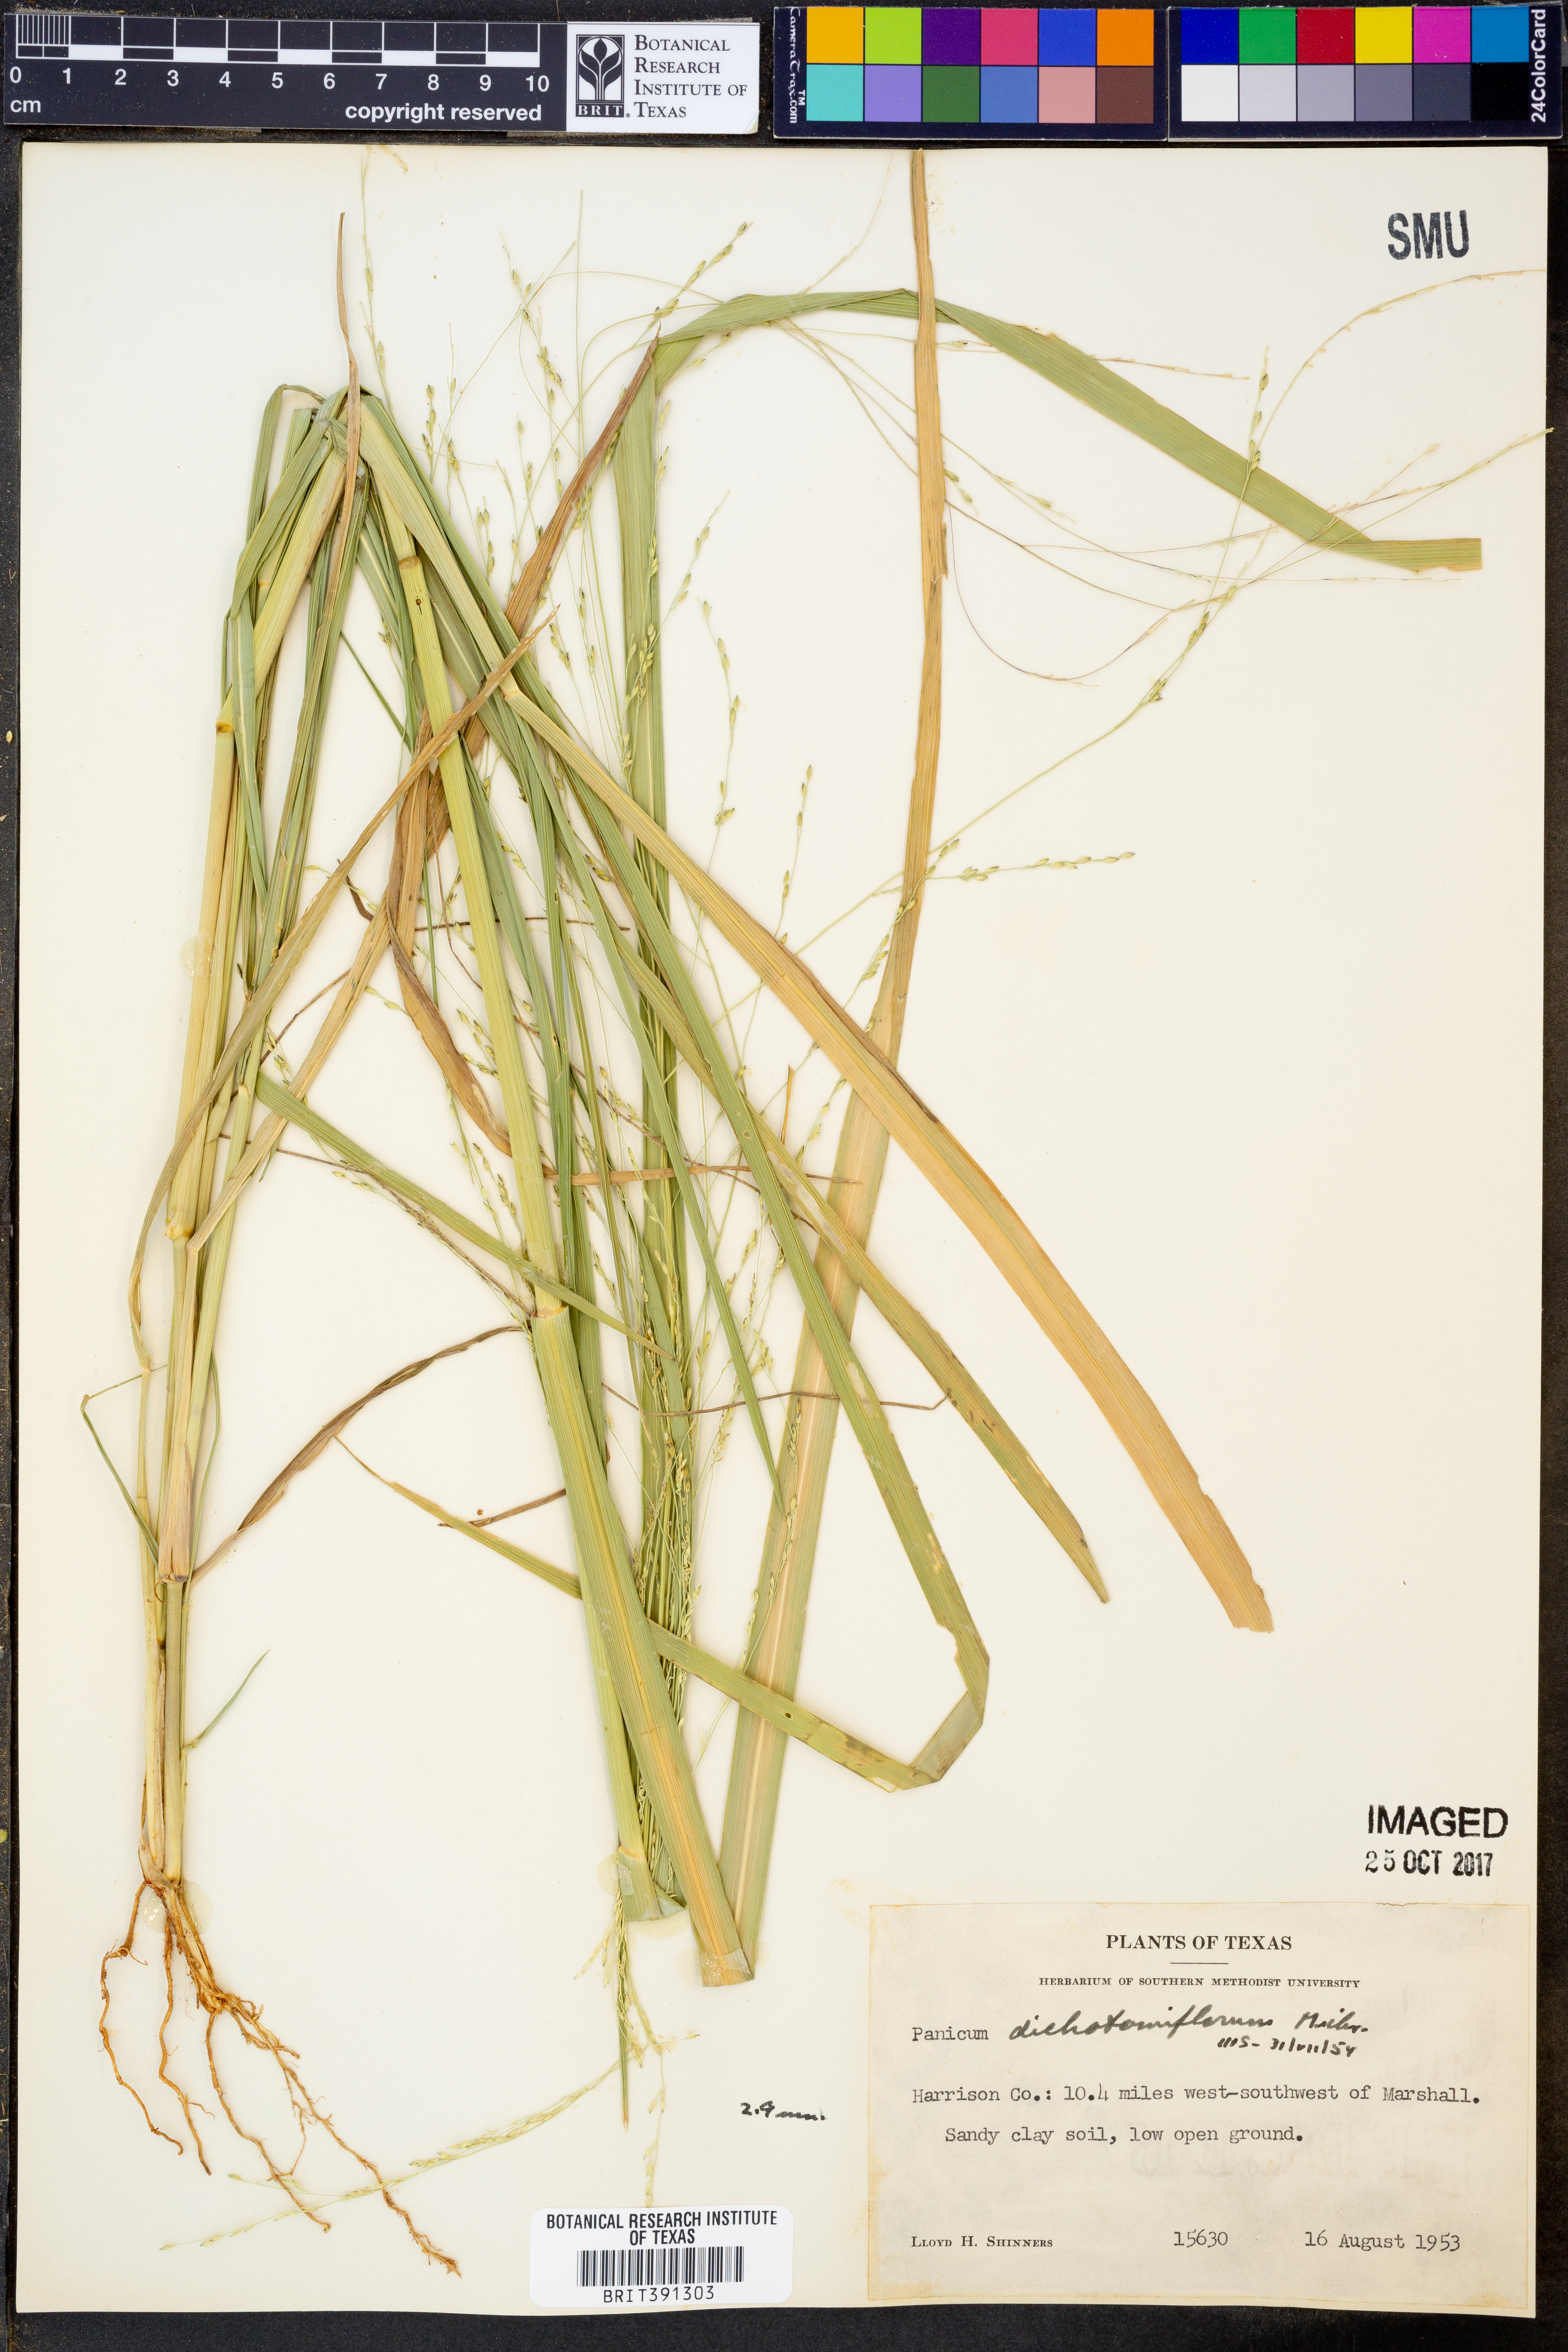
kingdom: Plantae
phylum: Tracheophyta
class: Liliopsida
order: Poales
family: Poaceae
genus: Panicum
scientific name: Panicum dichotomiflorum
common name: Autumn millet
